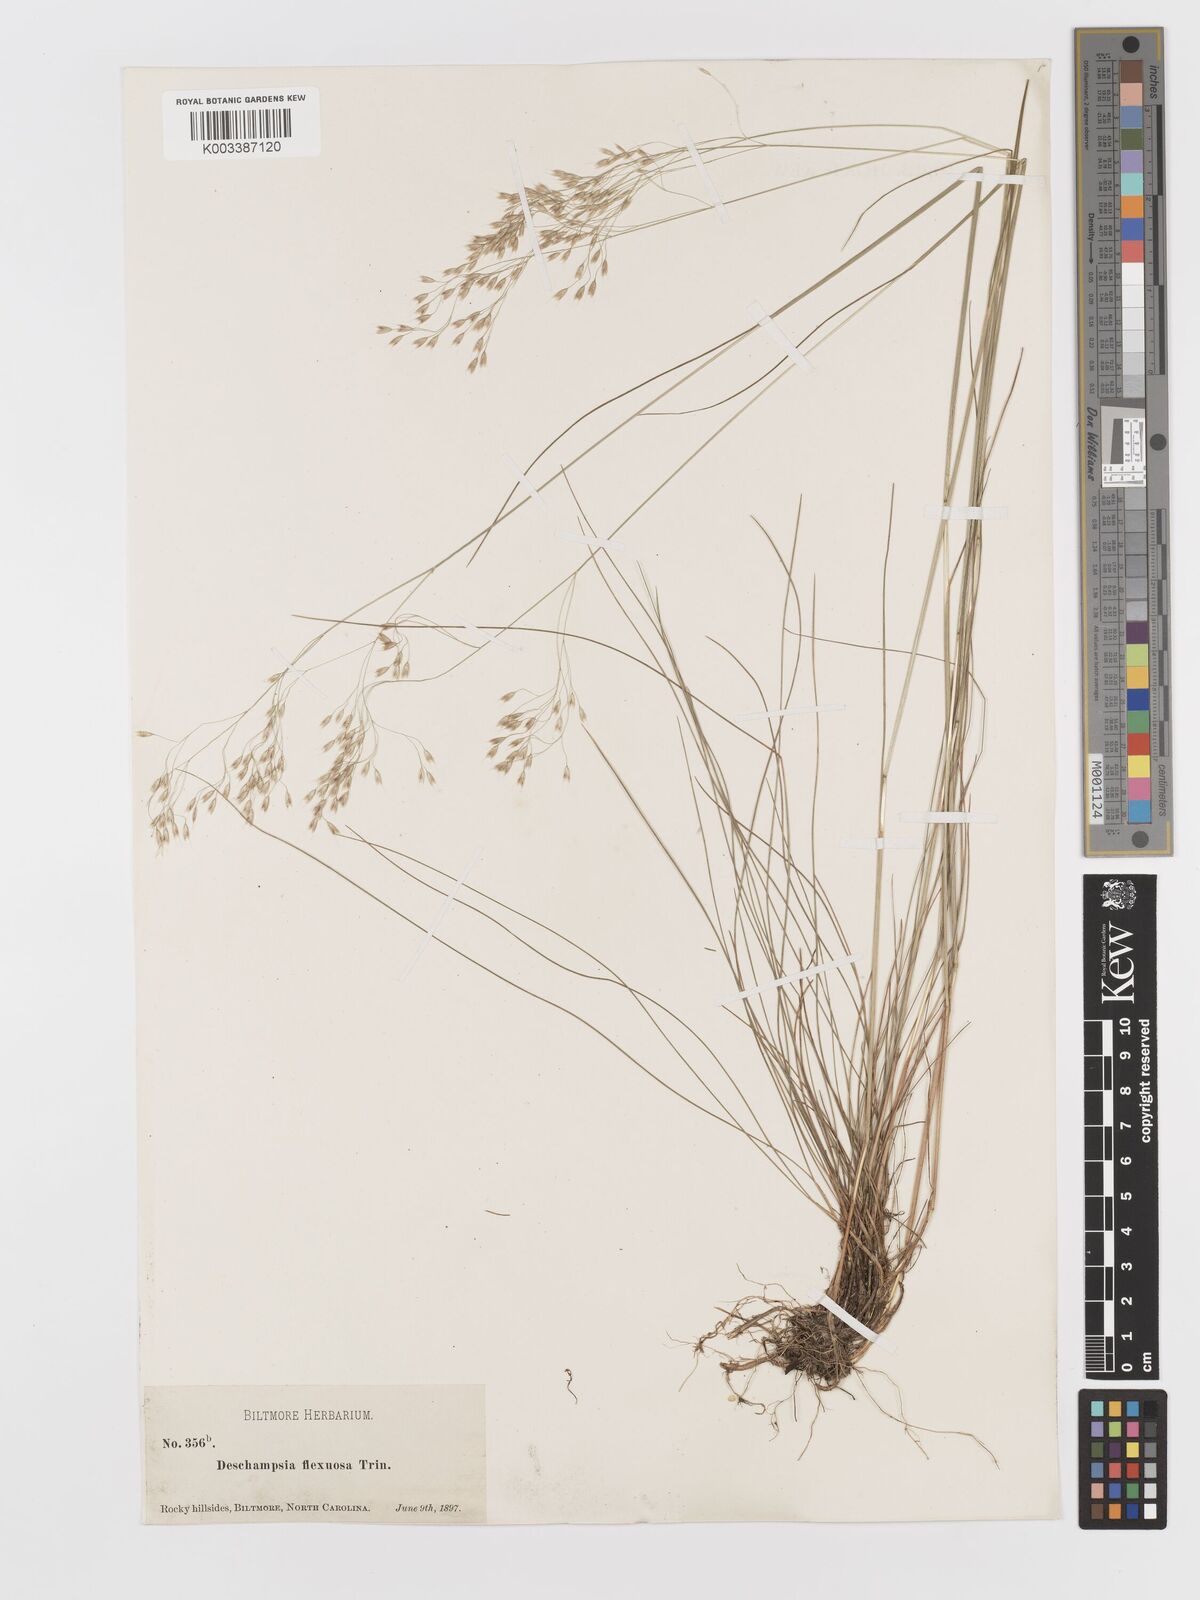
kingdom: Plantae
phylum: Tracheophyta
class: Liliopsida
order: Poales
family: Poaceae
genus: Avenella
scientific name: Avenella flexuosa
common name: Wavy hairgrass
